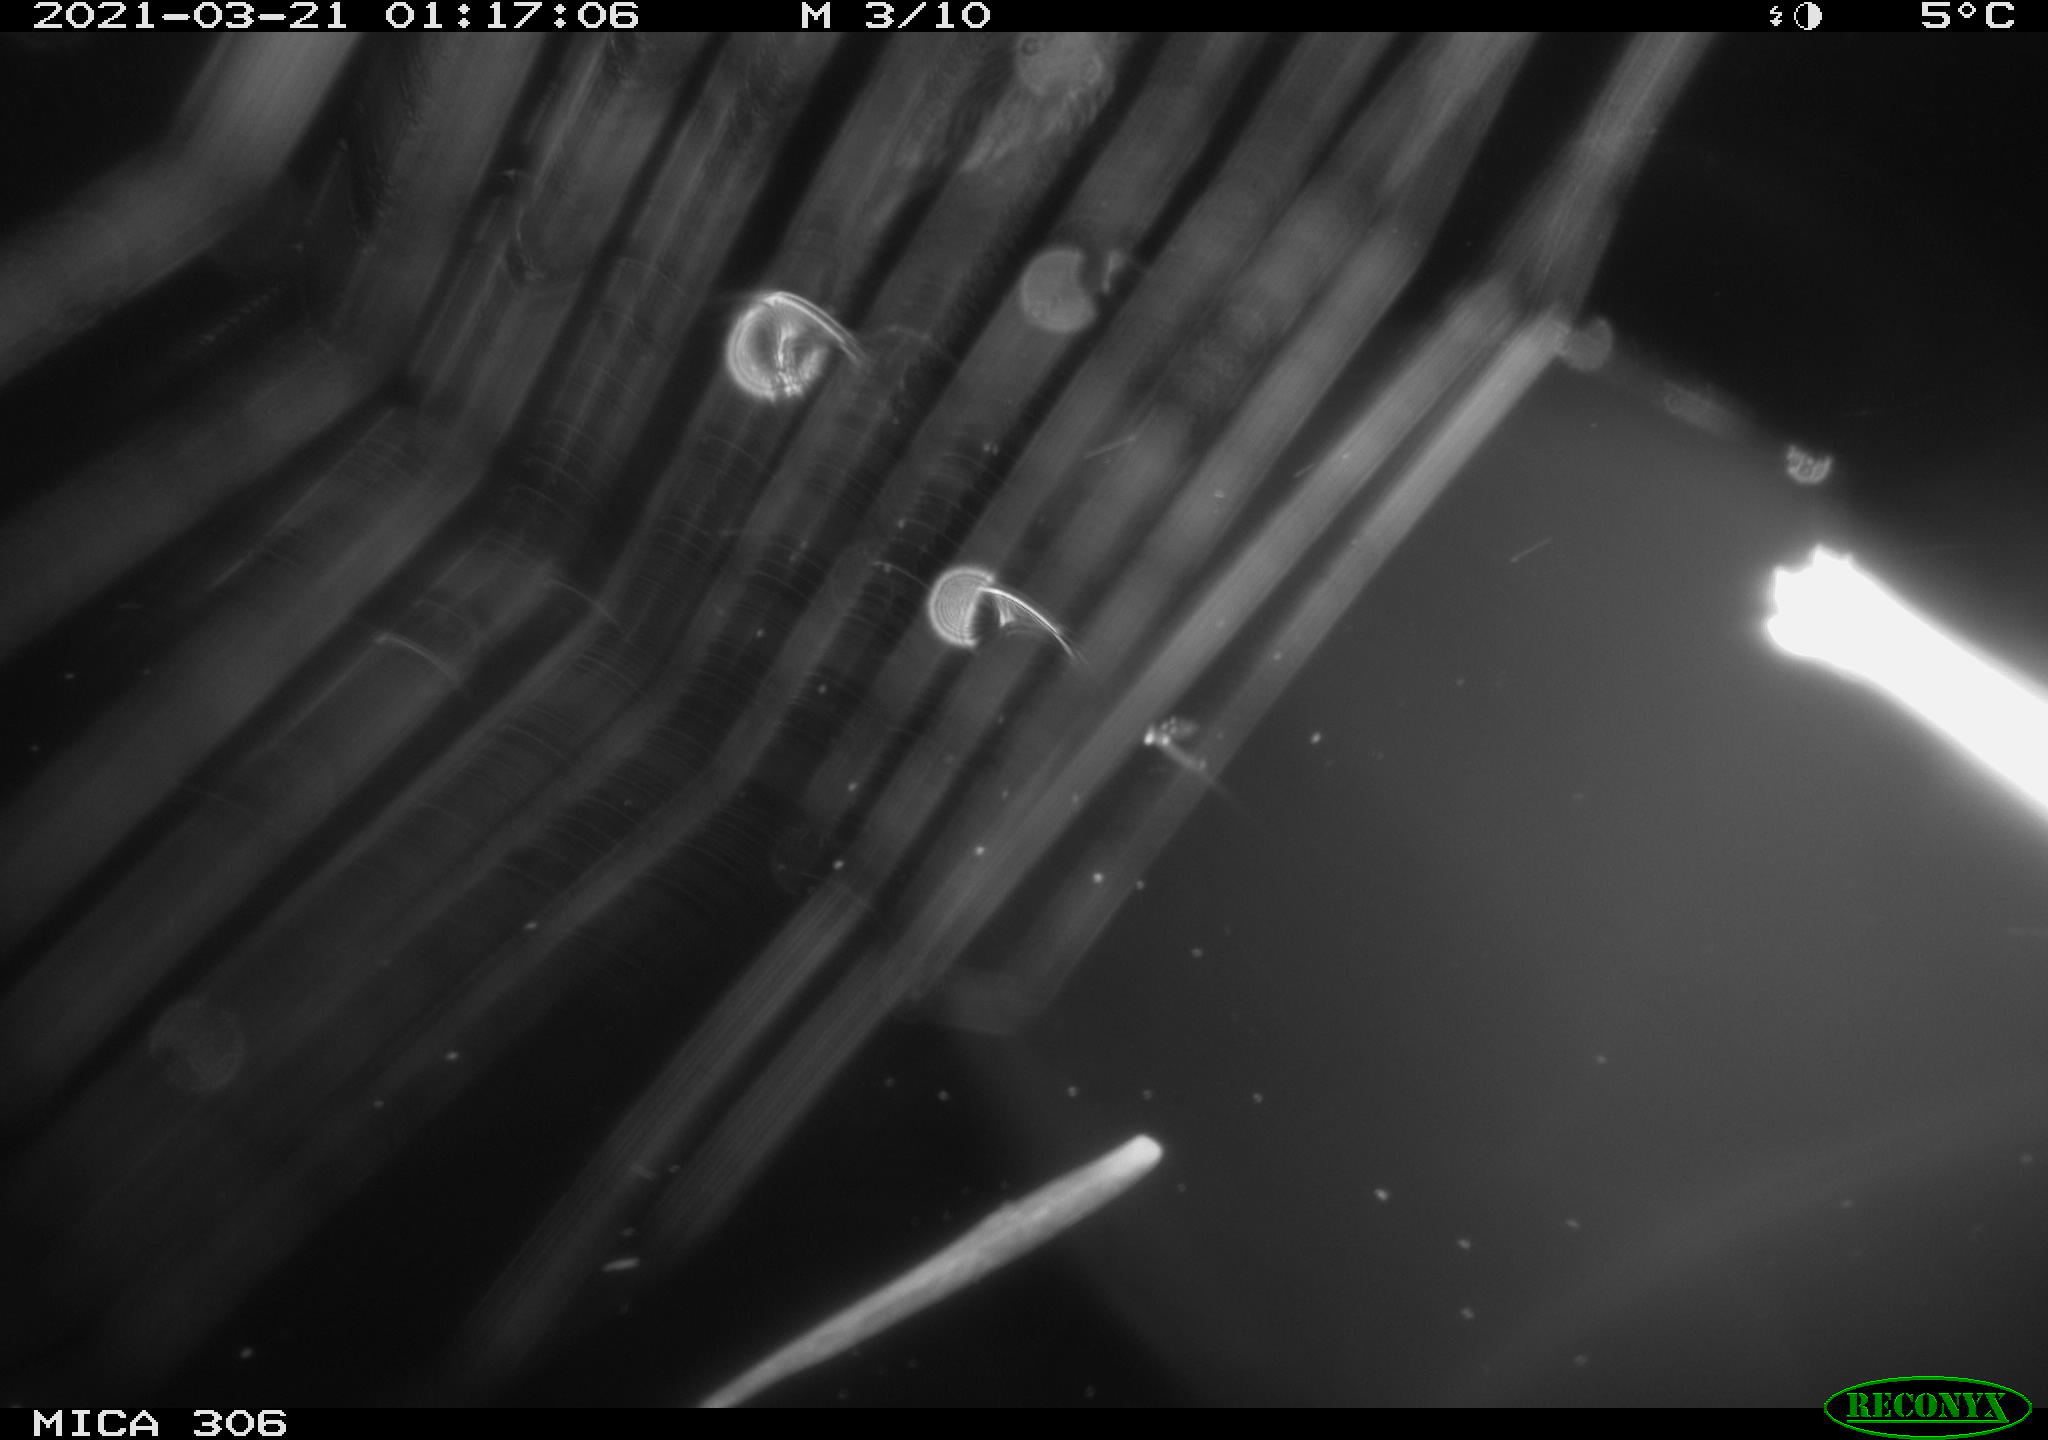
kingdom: Animalia
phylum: Chordata
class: Mammalia
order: Rodentia
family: Cricetidae
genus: Ondatra
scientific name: Ondatra zibethicus
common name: Muskrat
